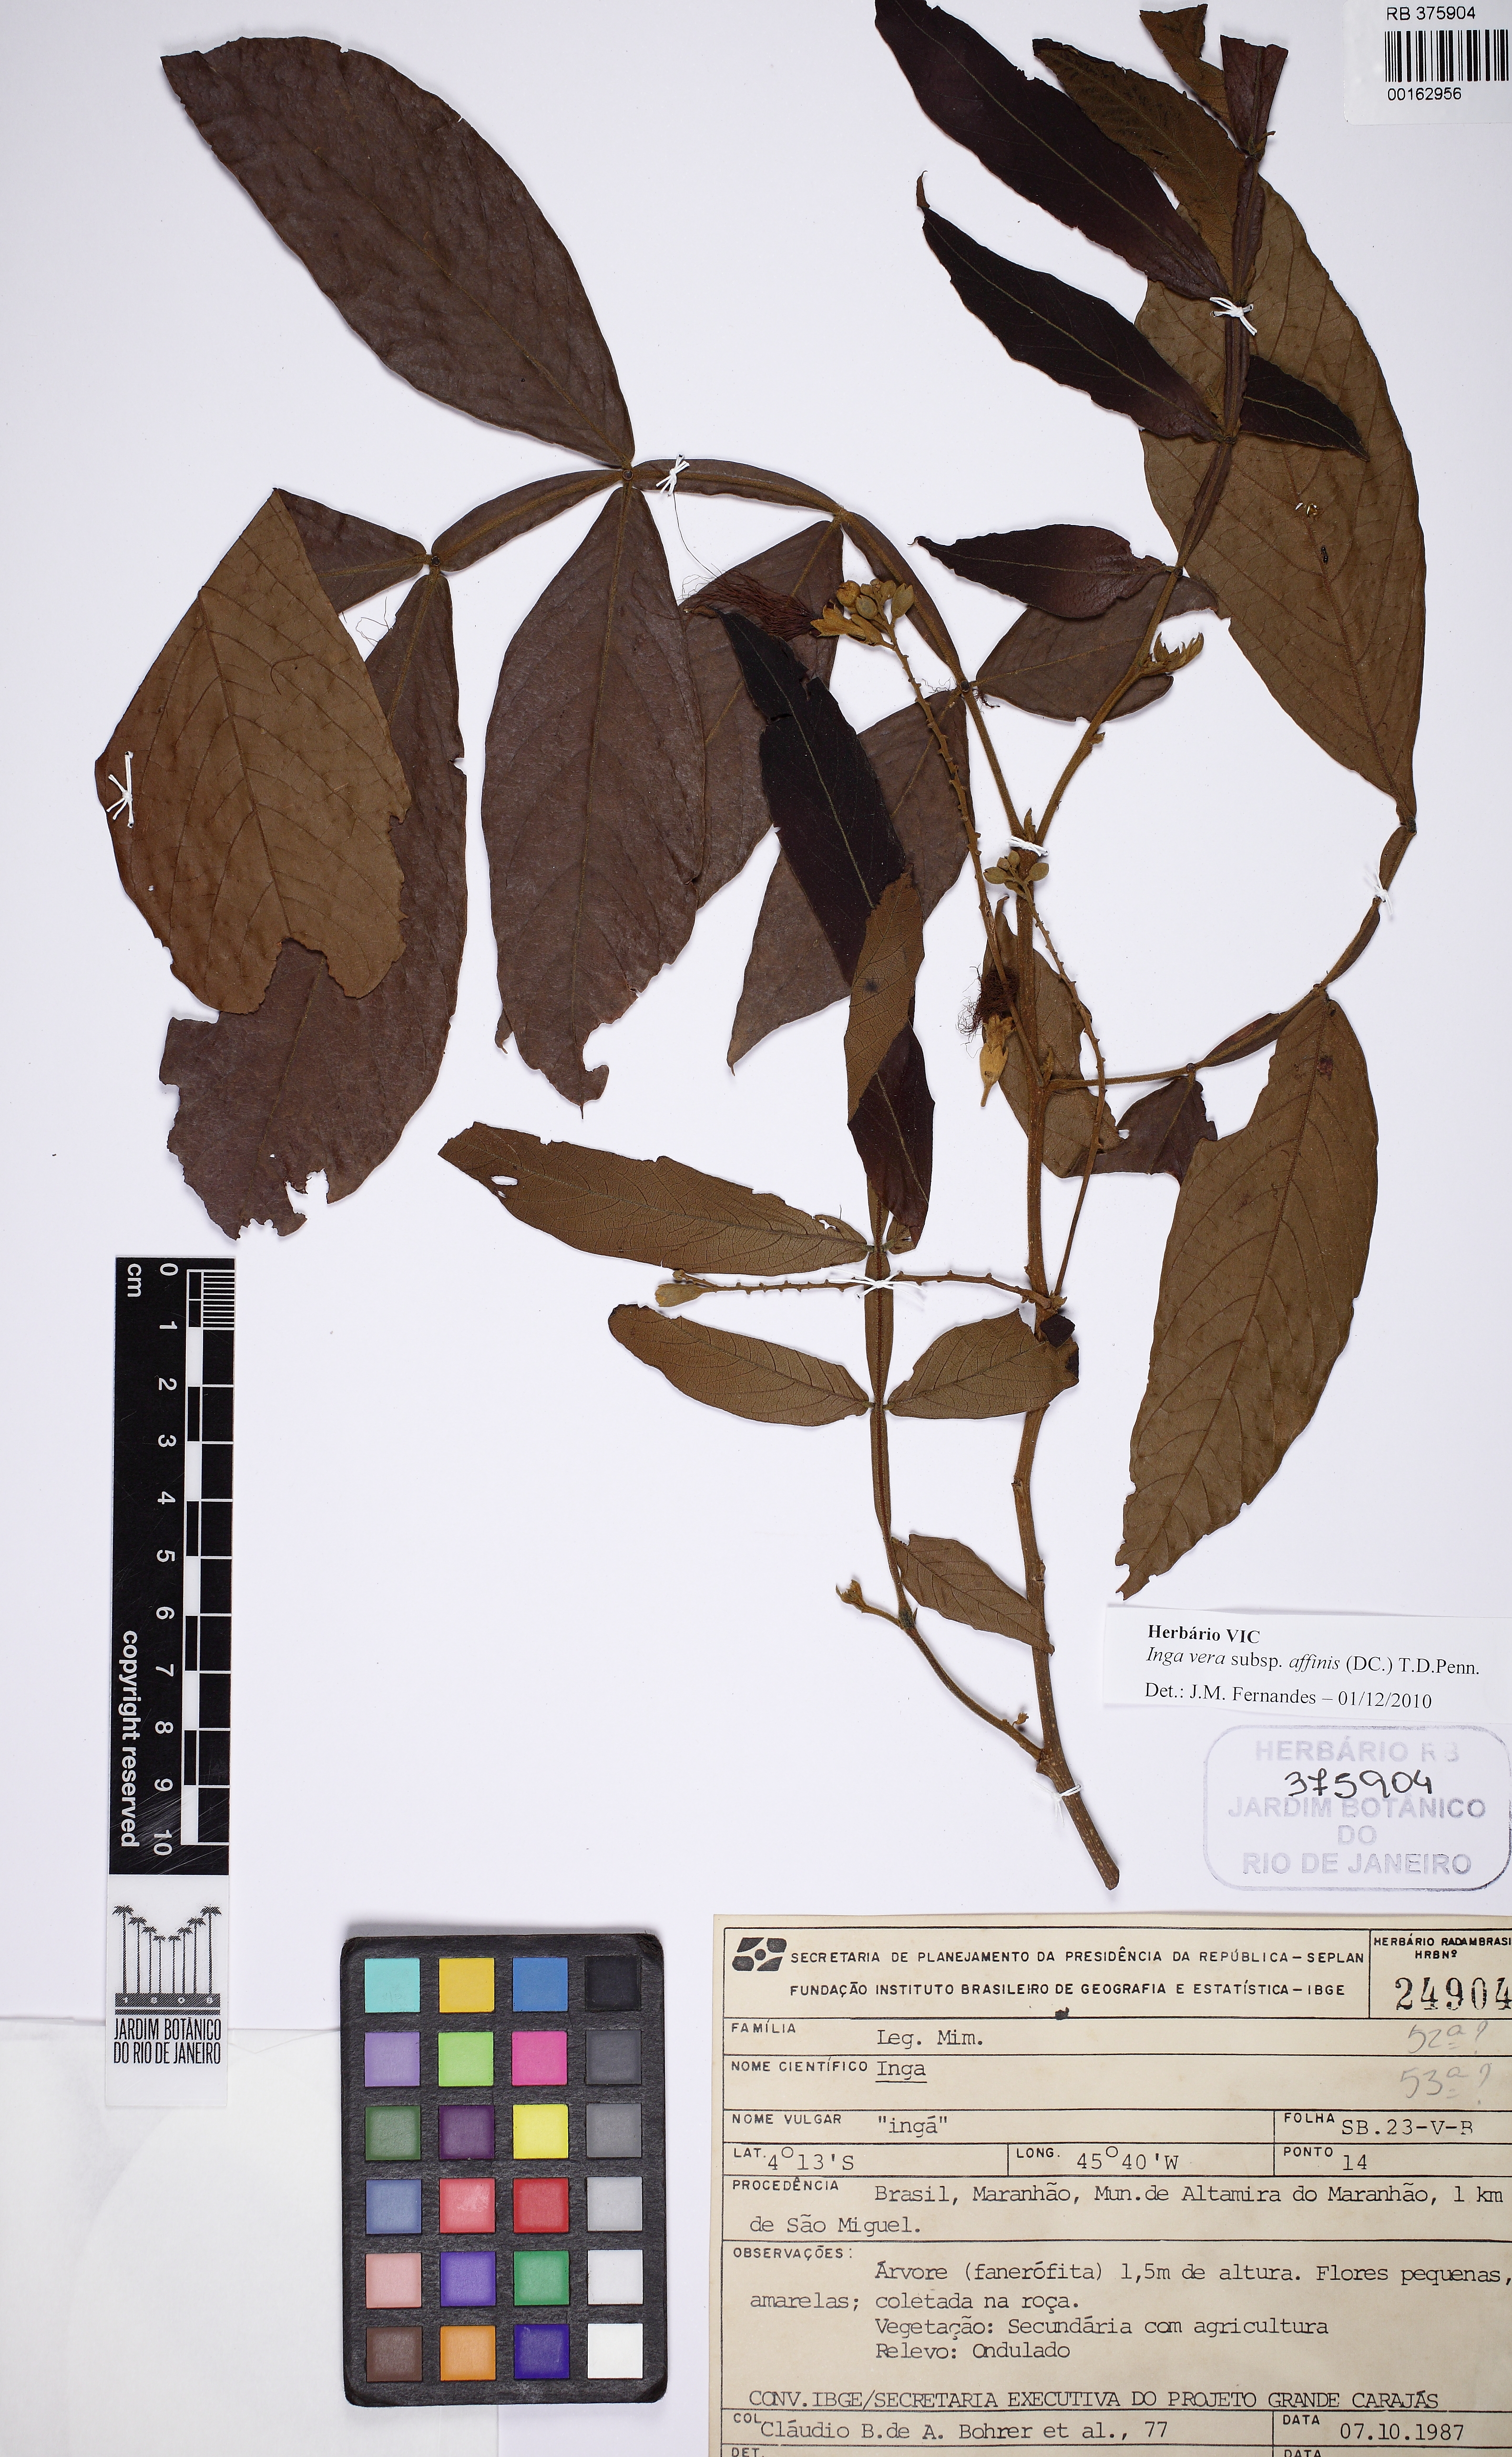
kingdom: Plantae
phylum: Tracheophyta
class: Magnoliopsida
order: Fabales
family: Fabaceae
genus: Inga
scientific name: Inga affinis
